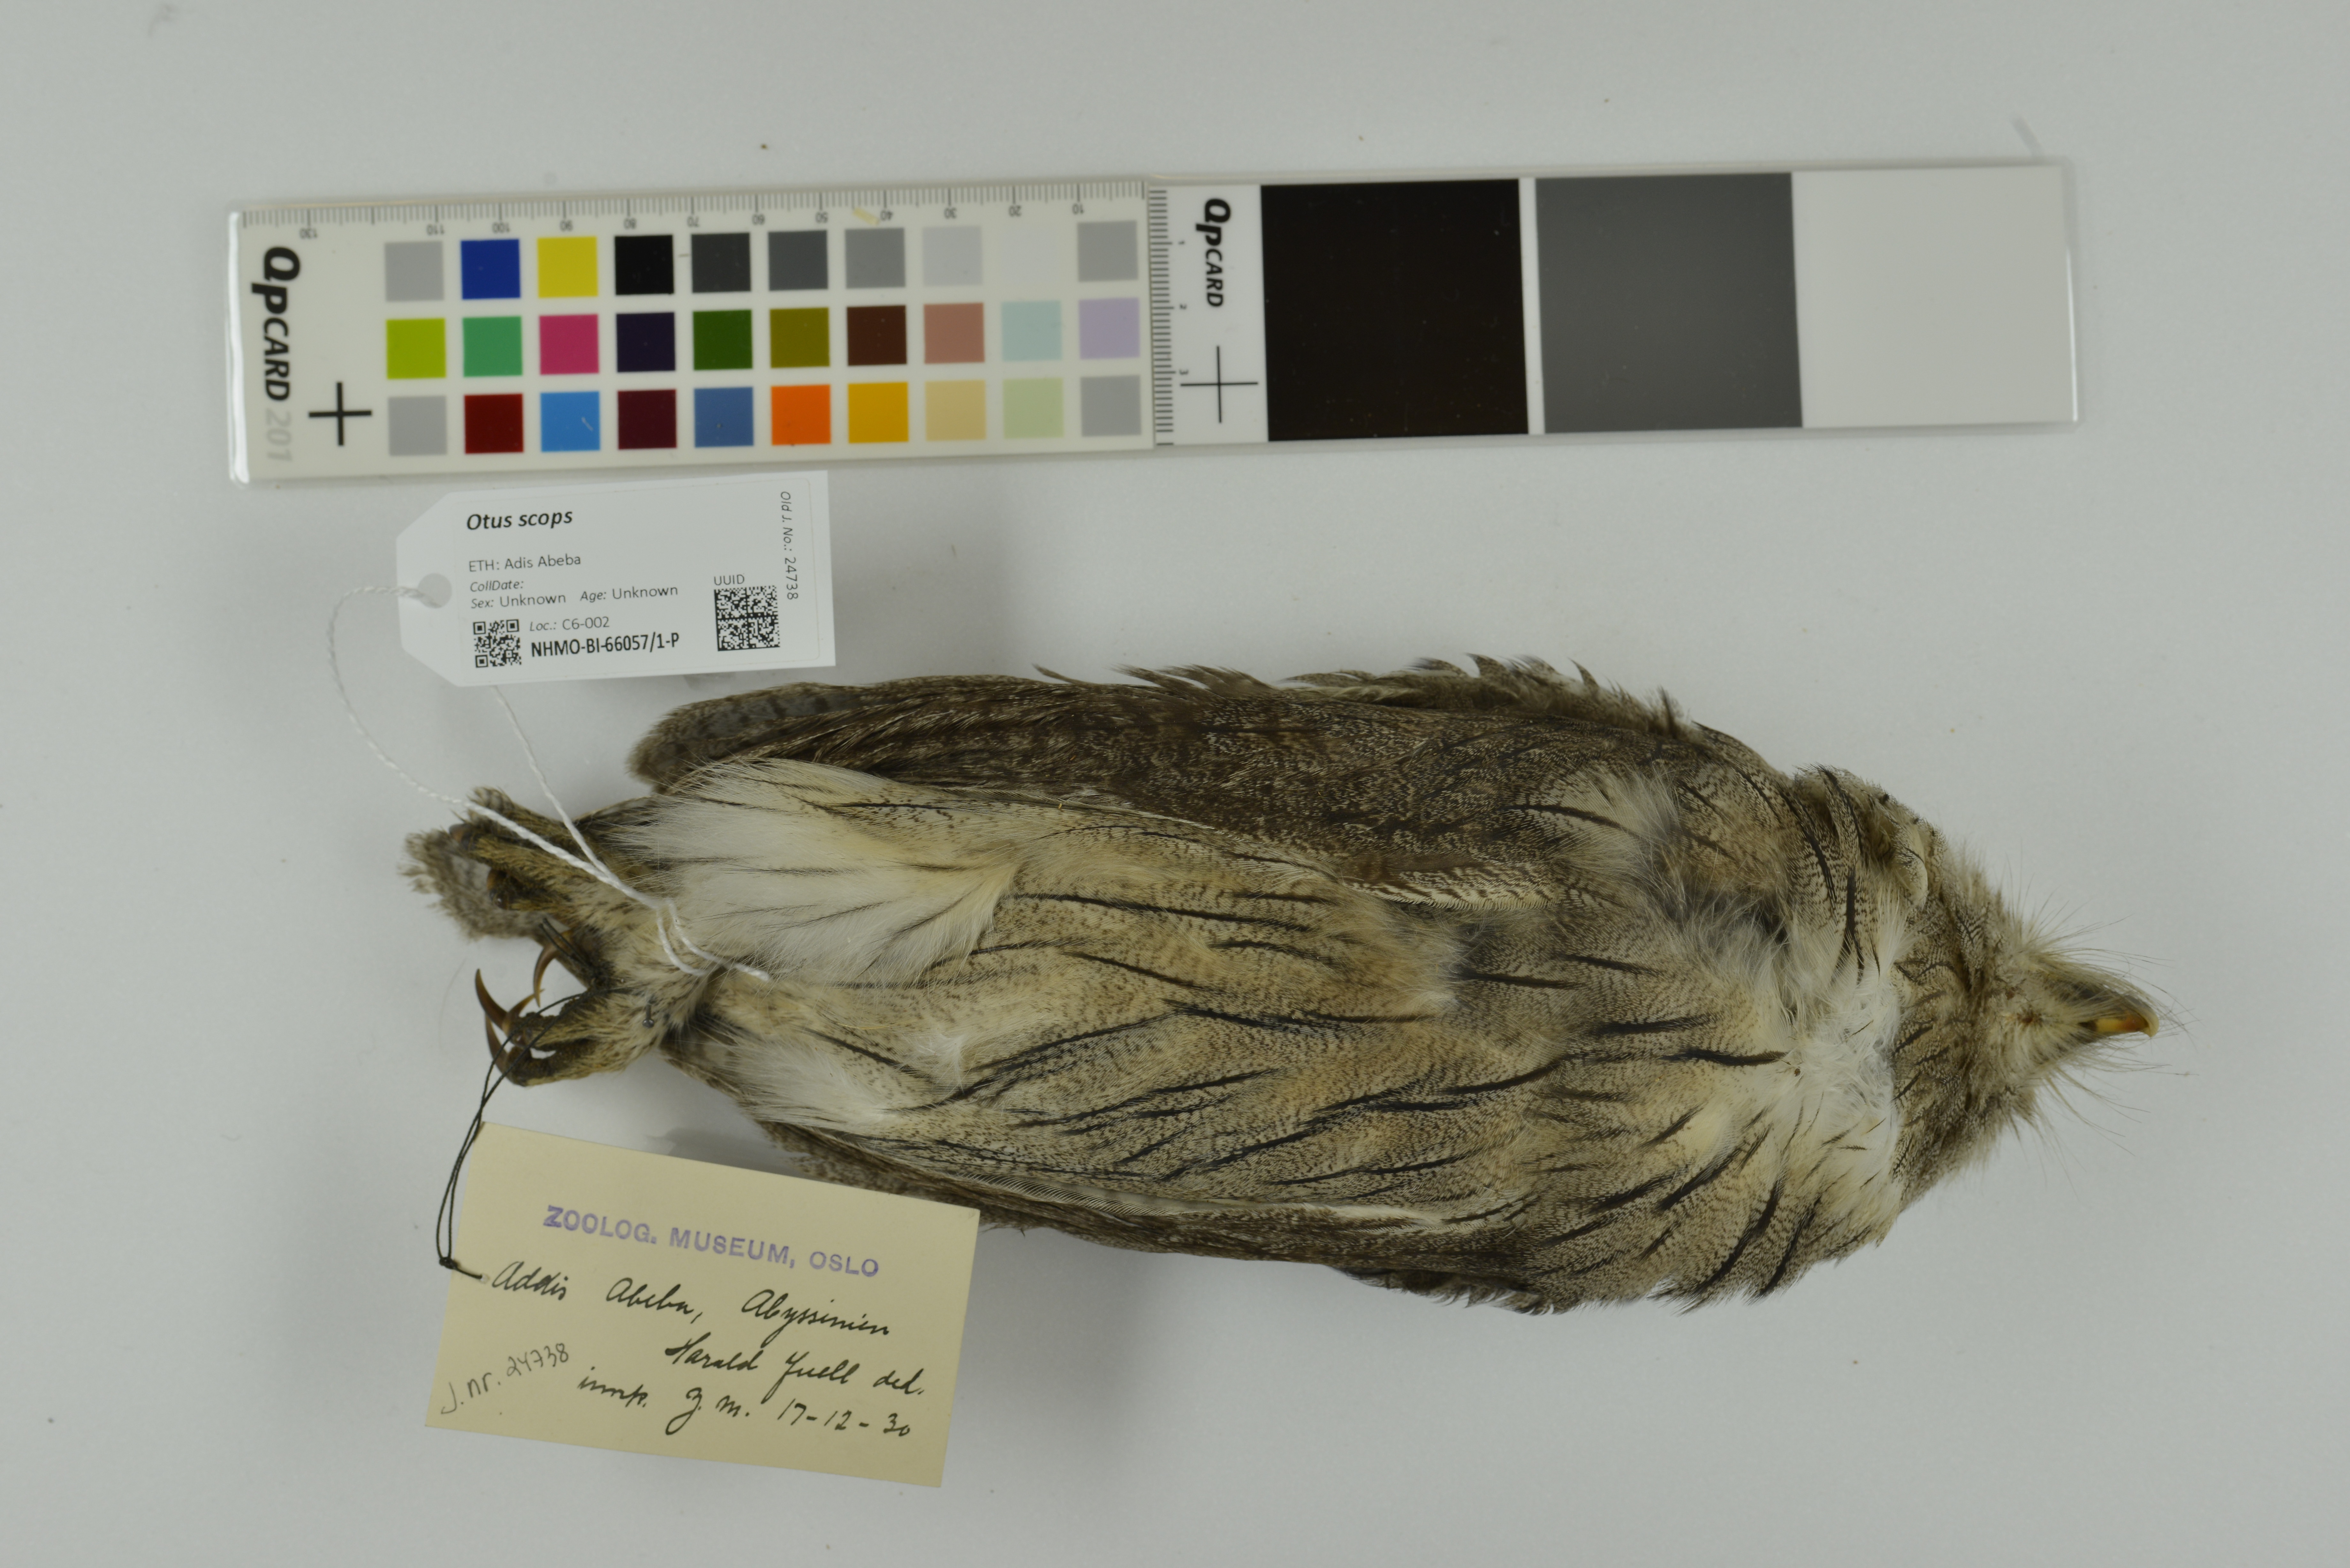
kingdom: Animalia
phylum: Chordata
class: Aves
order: Strigiformes
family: Strigidae
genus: Otus
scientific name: Otus scops
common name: Eurasian scops owl
